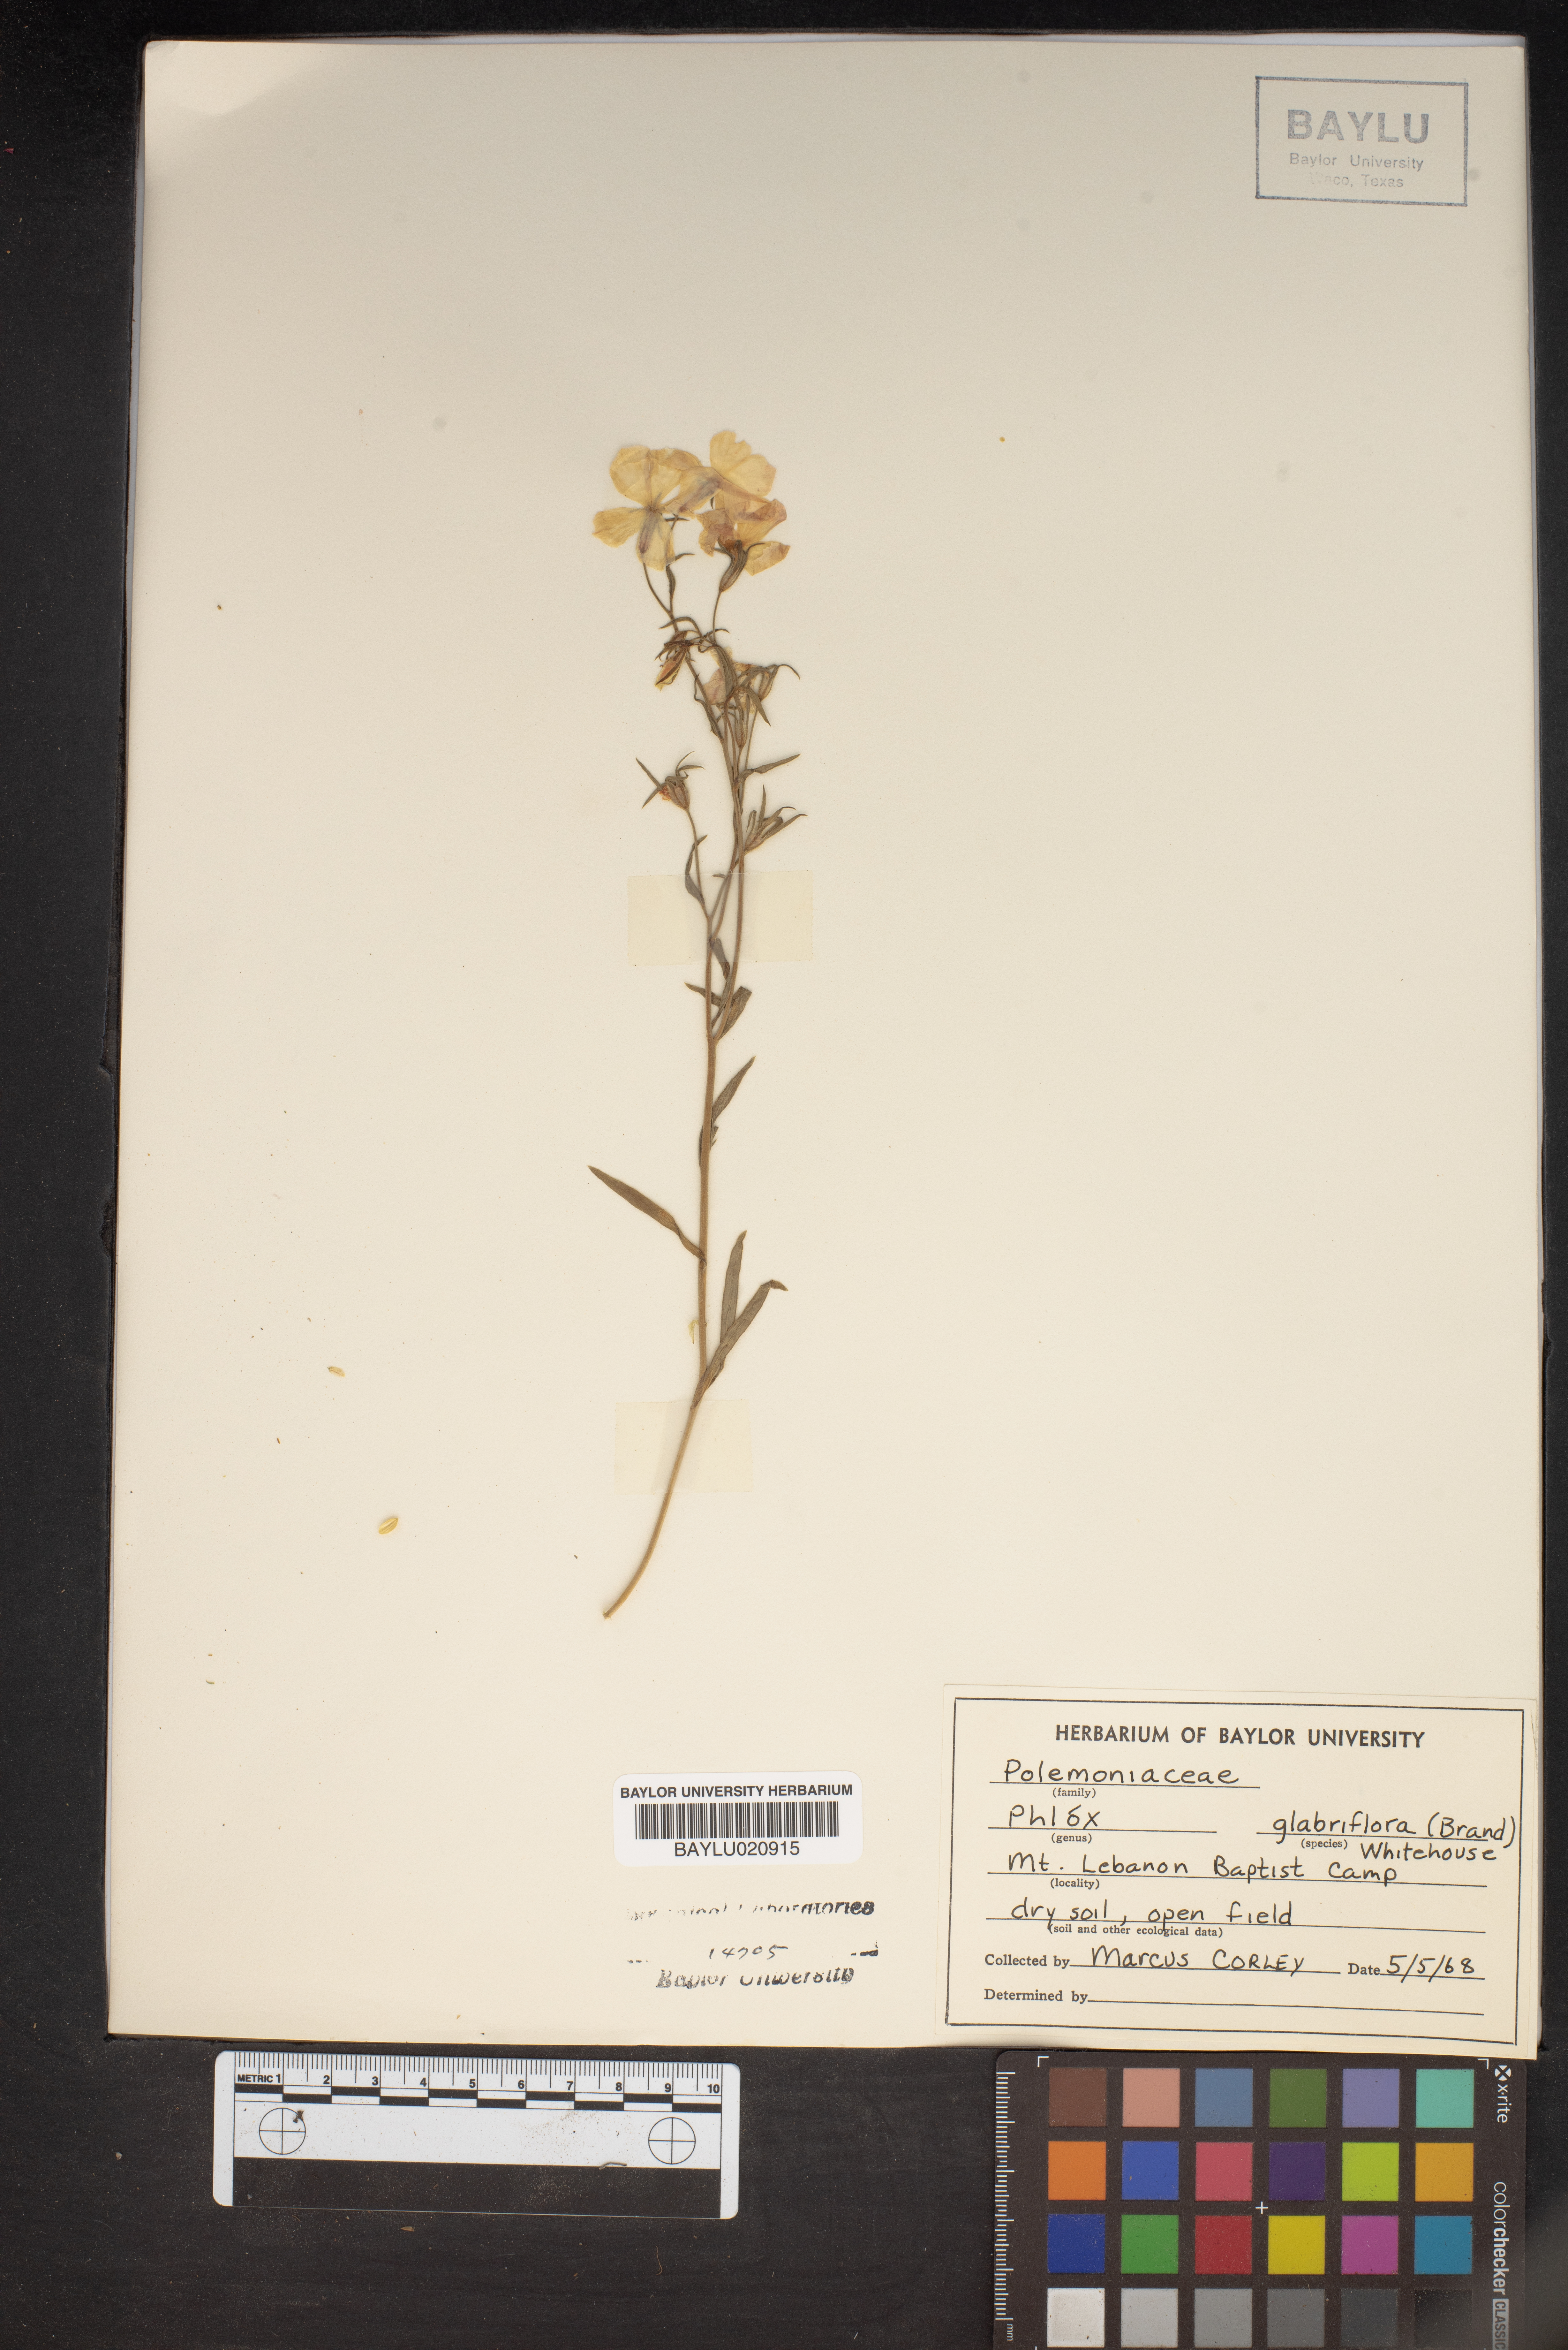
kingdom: Plantae
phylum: Tracheophyta
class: Magnoliopsida
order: Ericales
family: Polemoniaceae
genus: Phlox
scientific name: Phlox glabriflora
